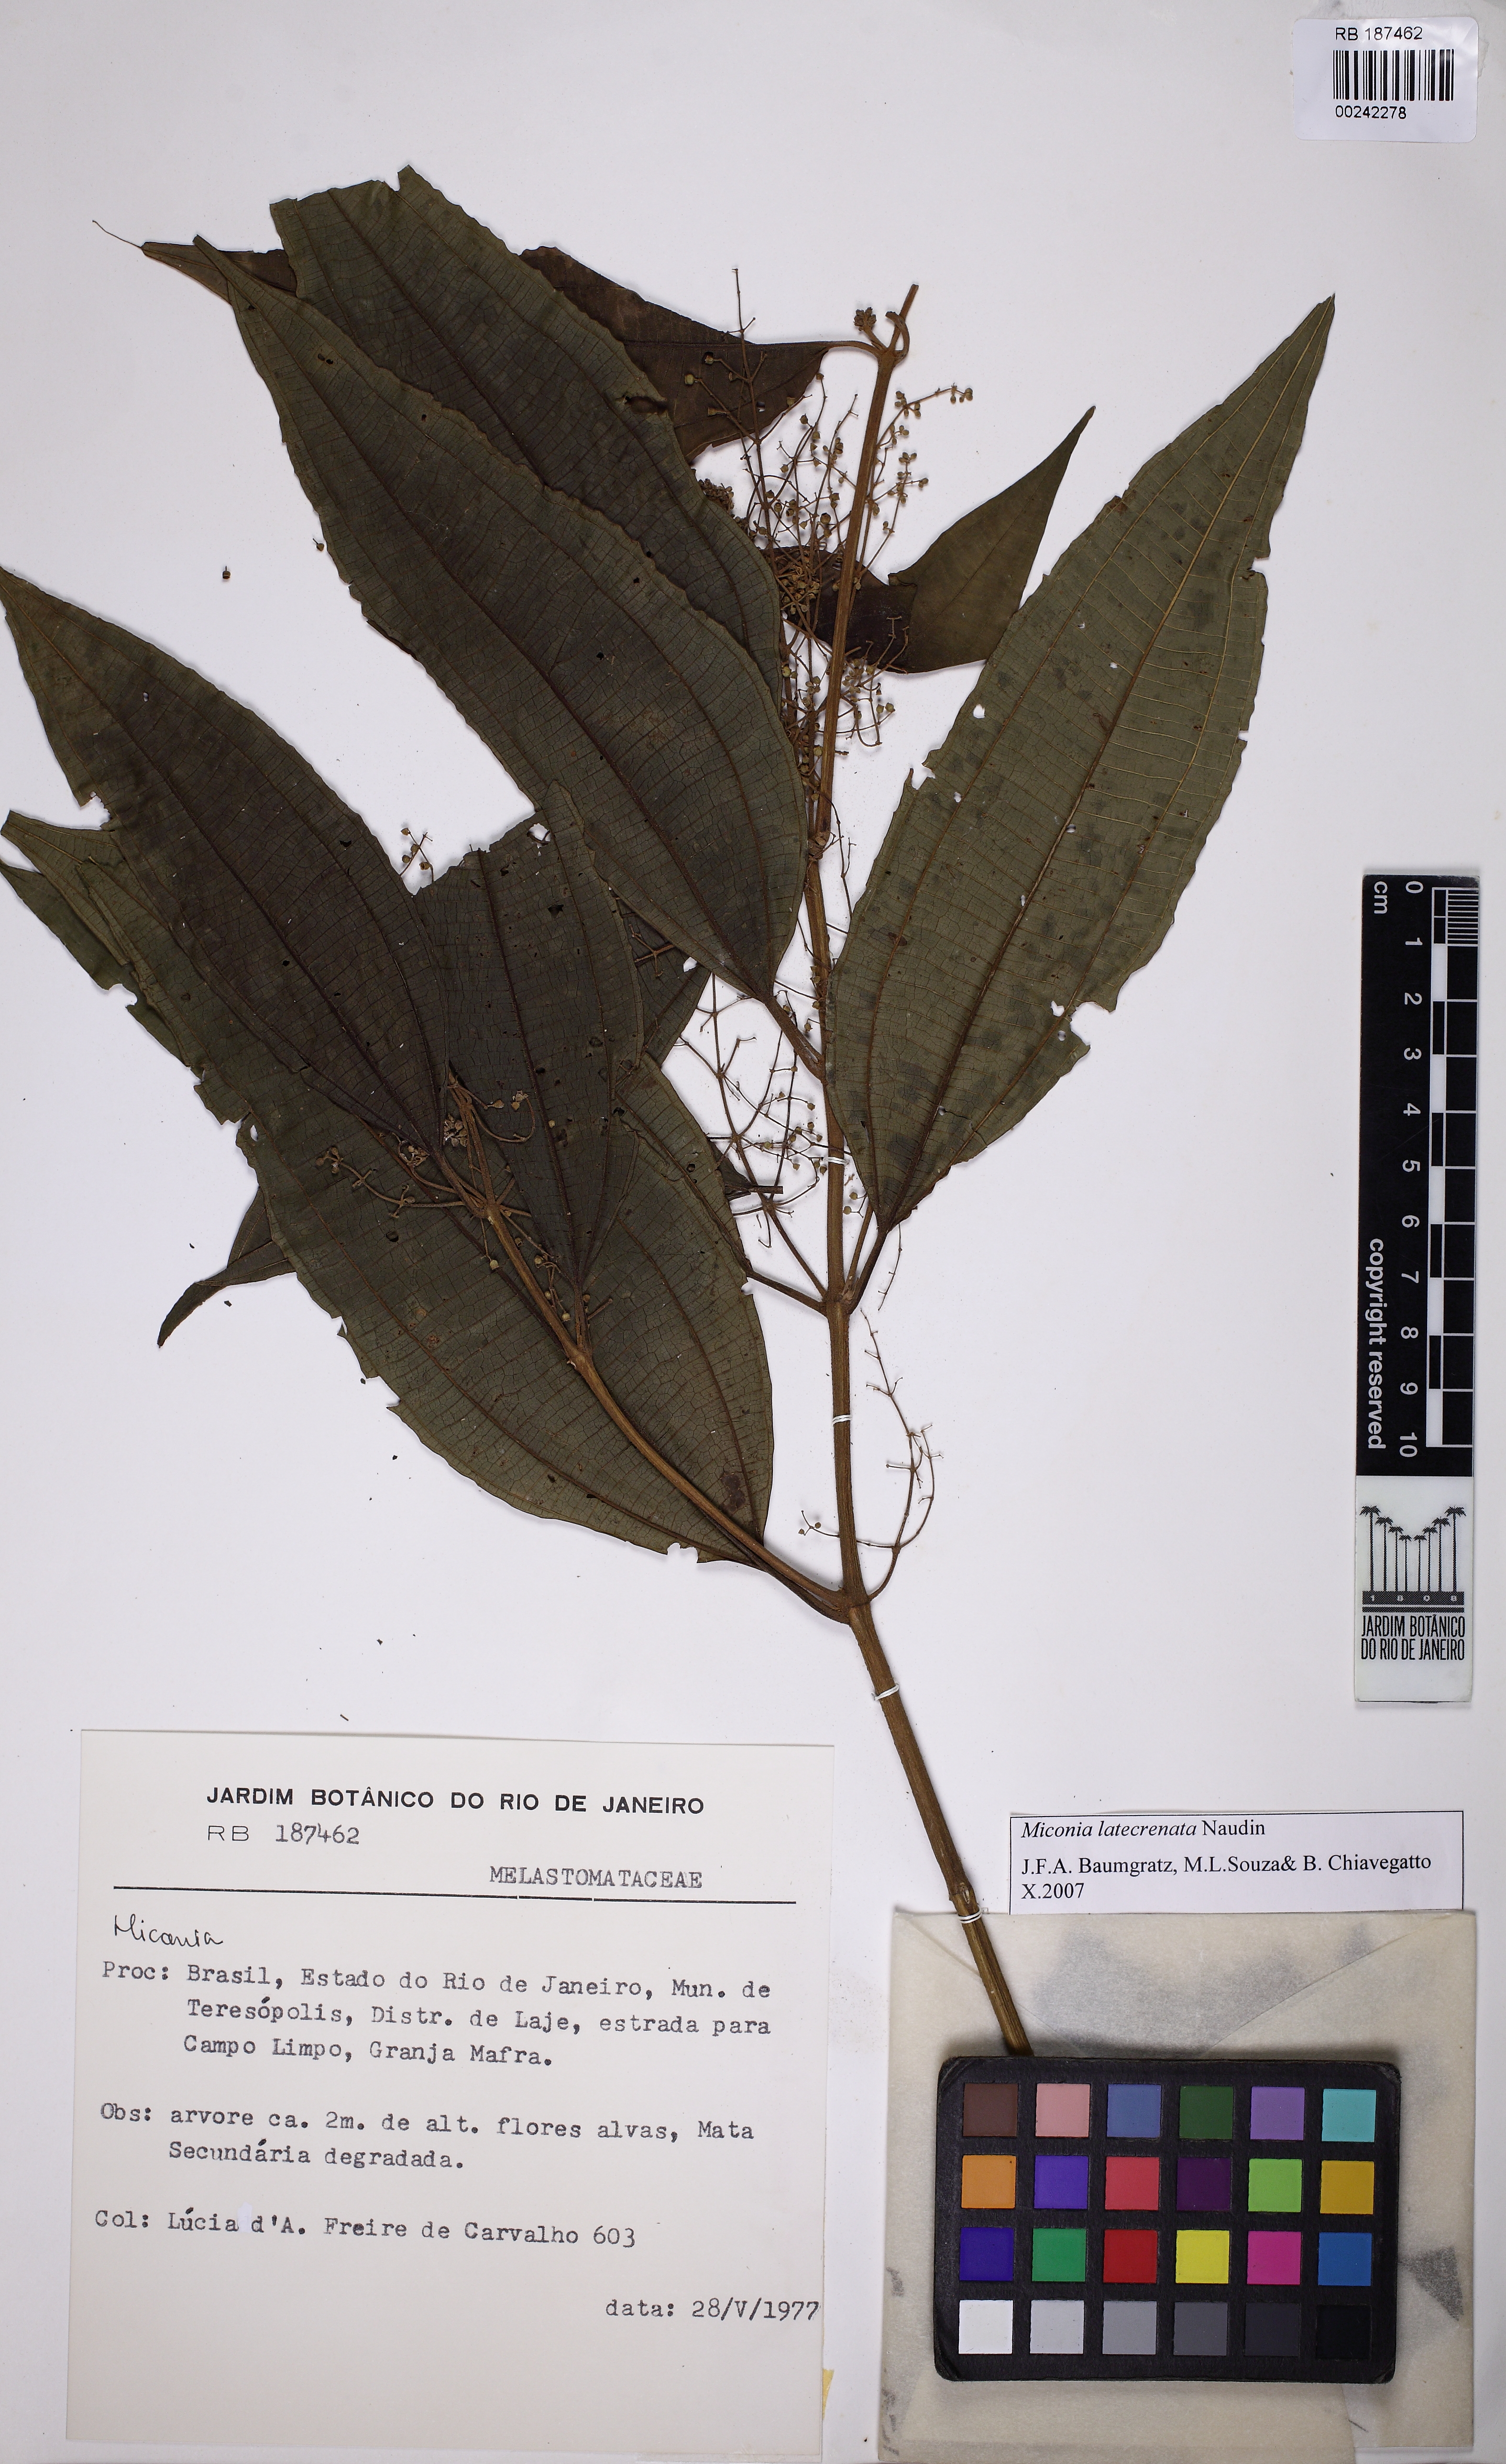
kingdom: Plantae
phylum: Tracheophyta
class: Magnoliopsida
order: Myrtales
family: Melastomataceae
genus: Miconia
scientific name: Miconia latecrenata
